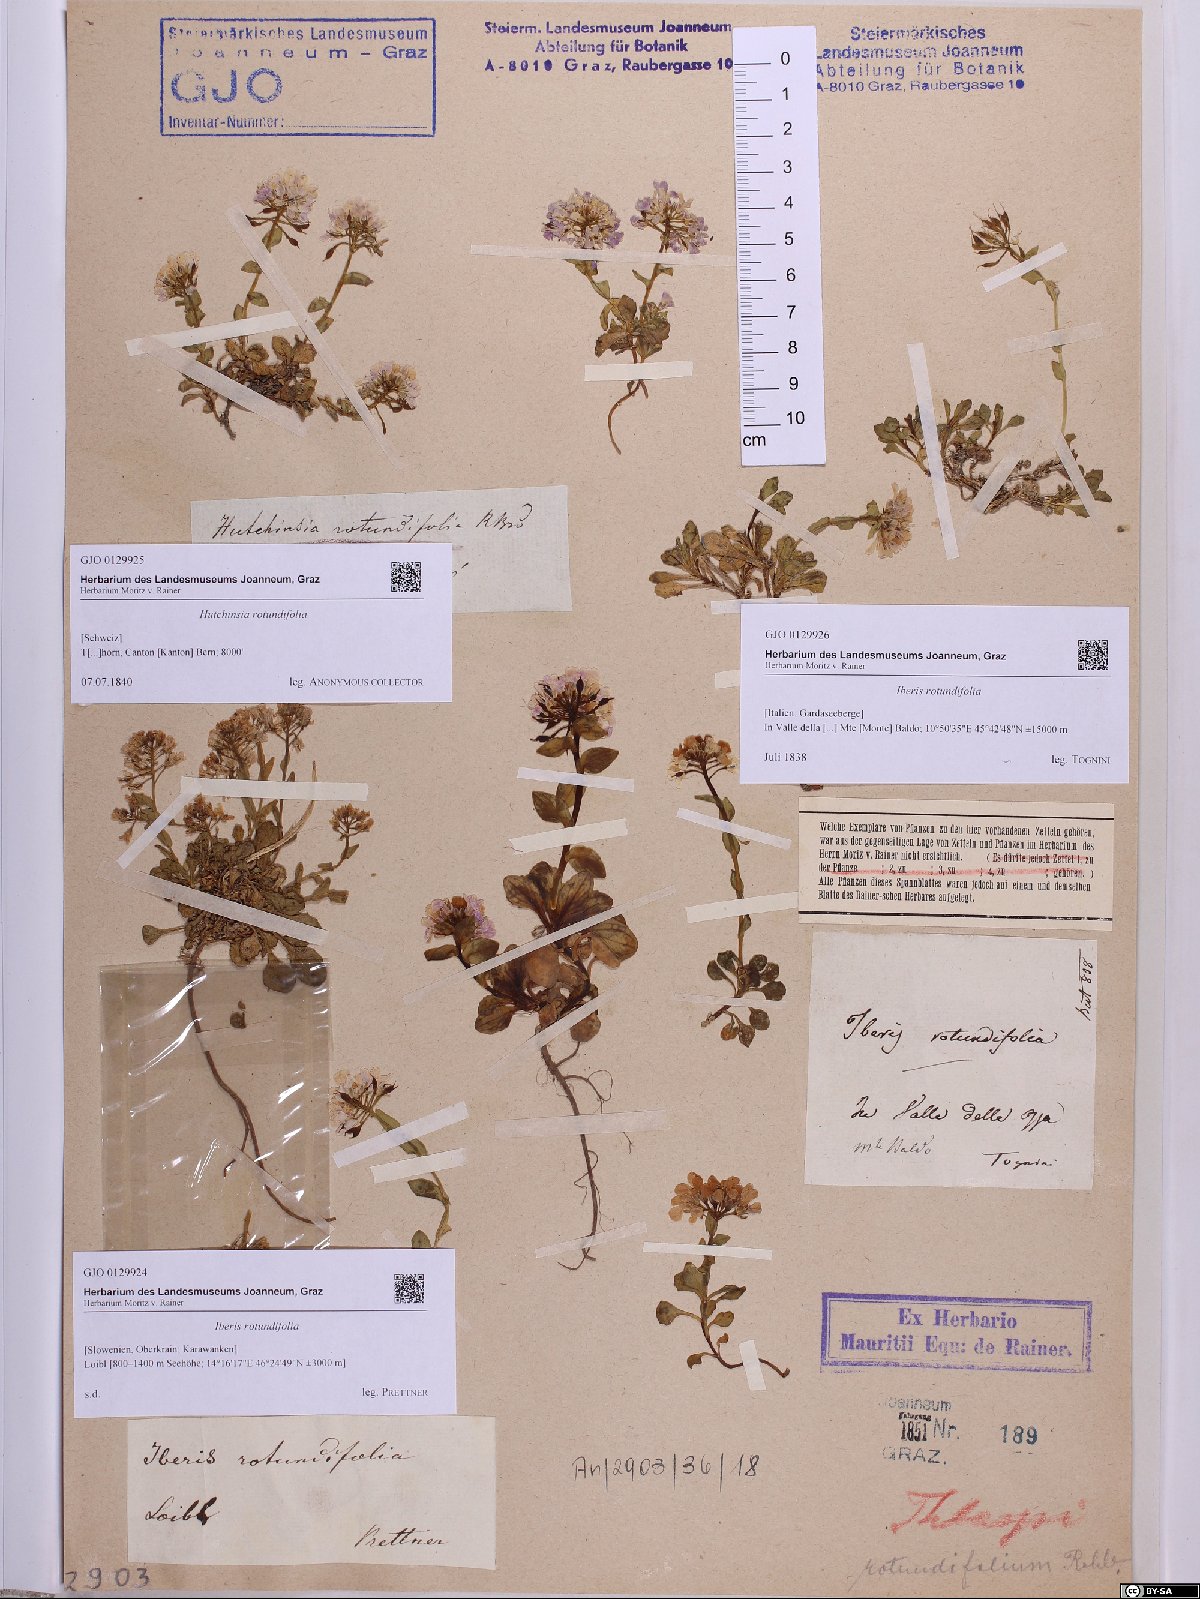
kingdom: Plantae
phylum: Tracheophyta
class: Magnoliopsida
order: Brassicales
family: Brassicaceae
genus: Noccaea
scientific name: Noccaea rotundifolia
